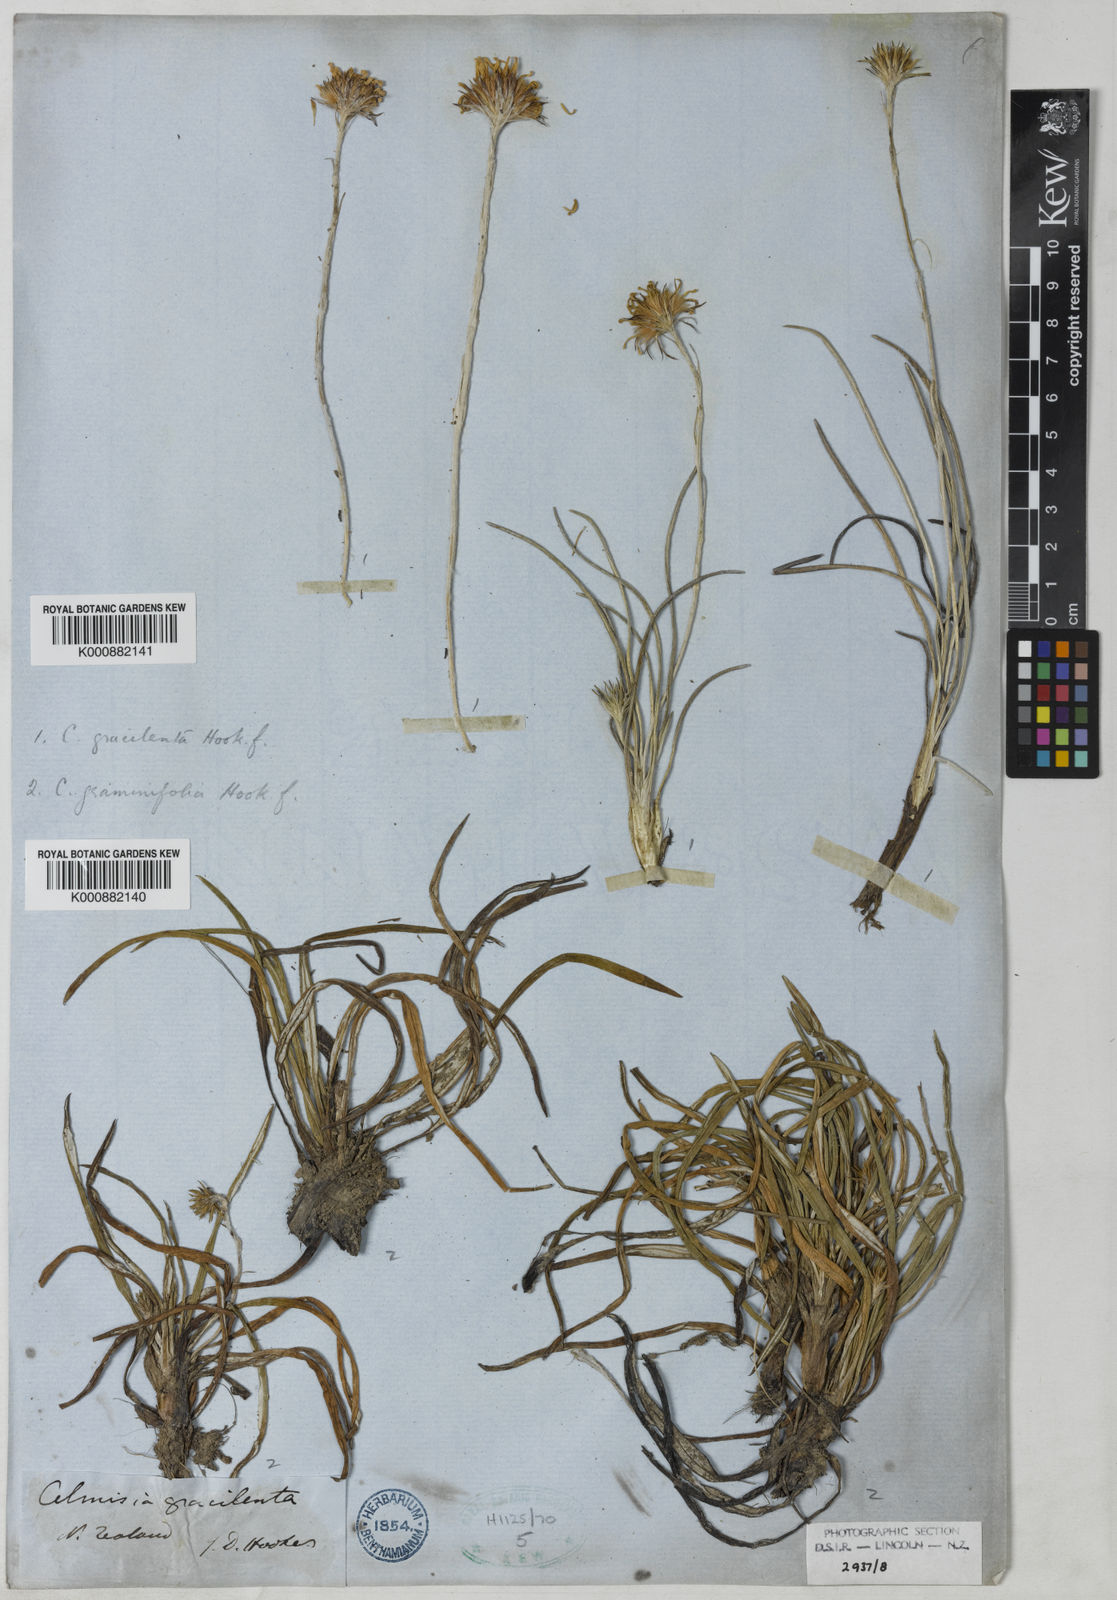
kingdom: Plantae
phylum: Tracheophyta
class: Magnoliopsida
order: Asterales
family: Asteraceae
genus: Celmisia
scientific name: Celmisia graminifolia
